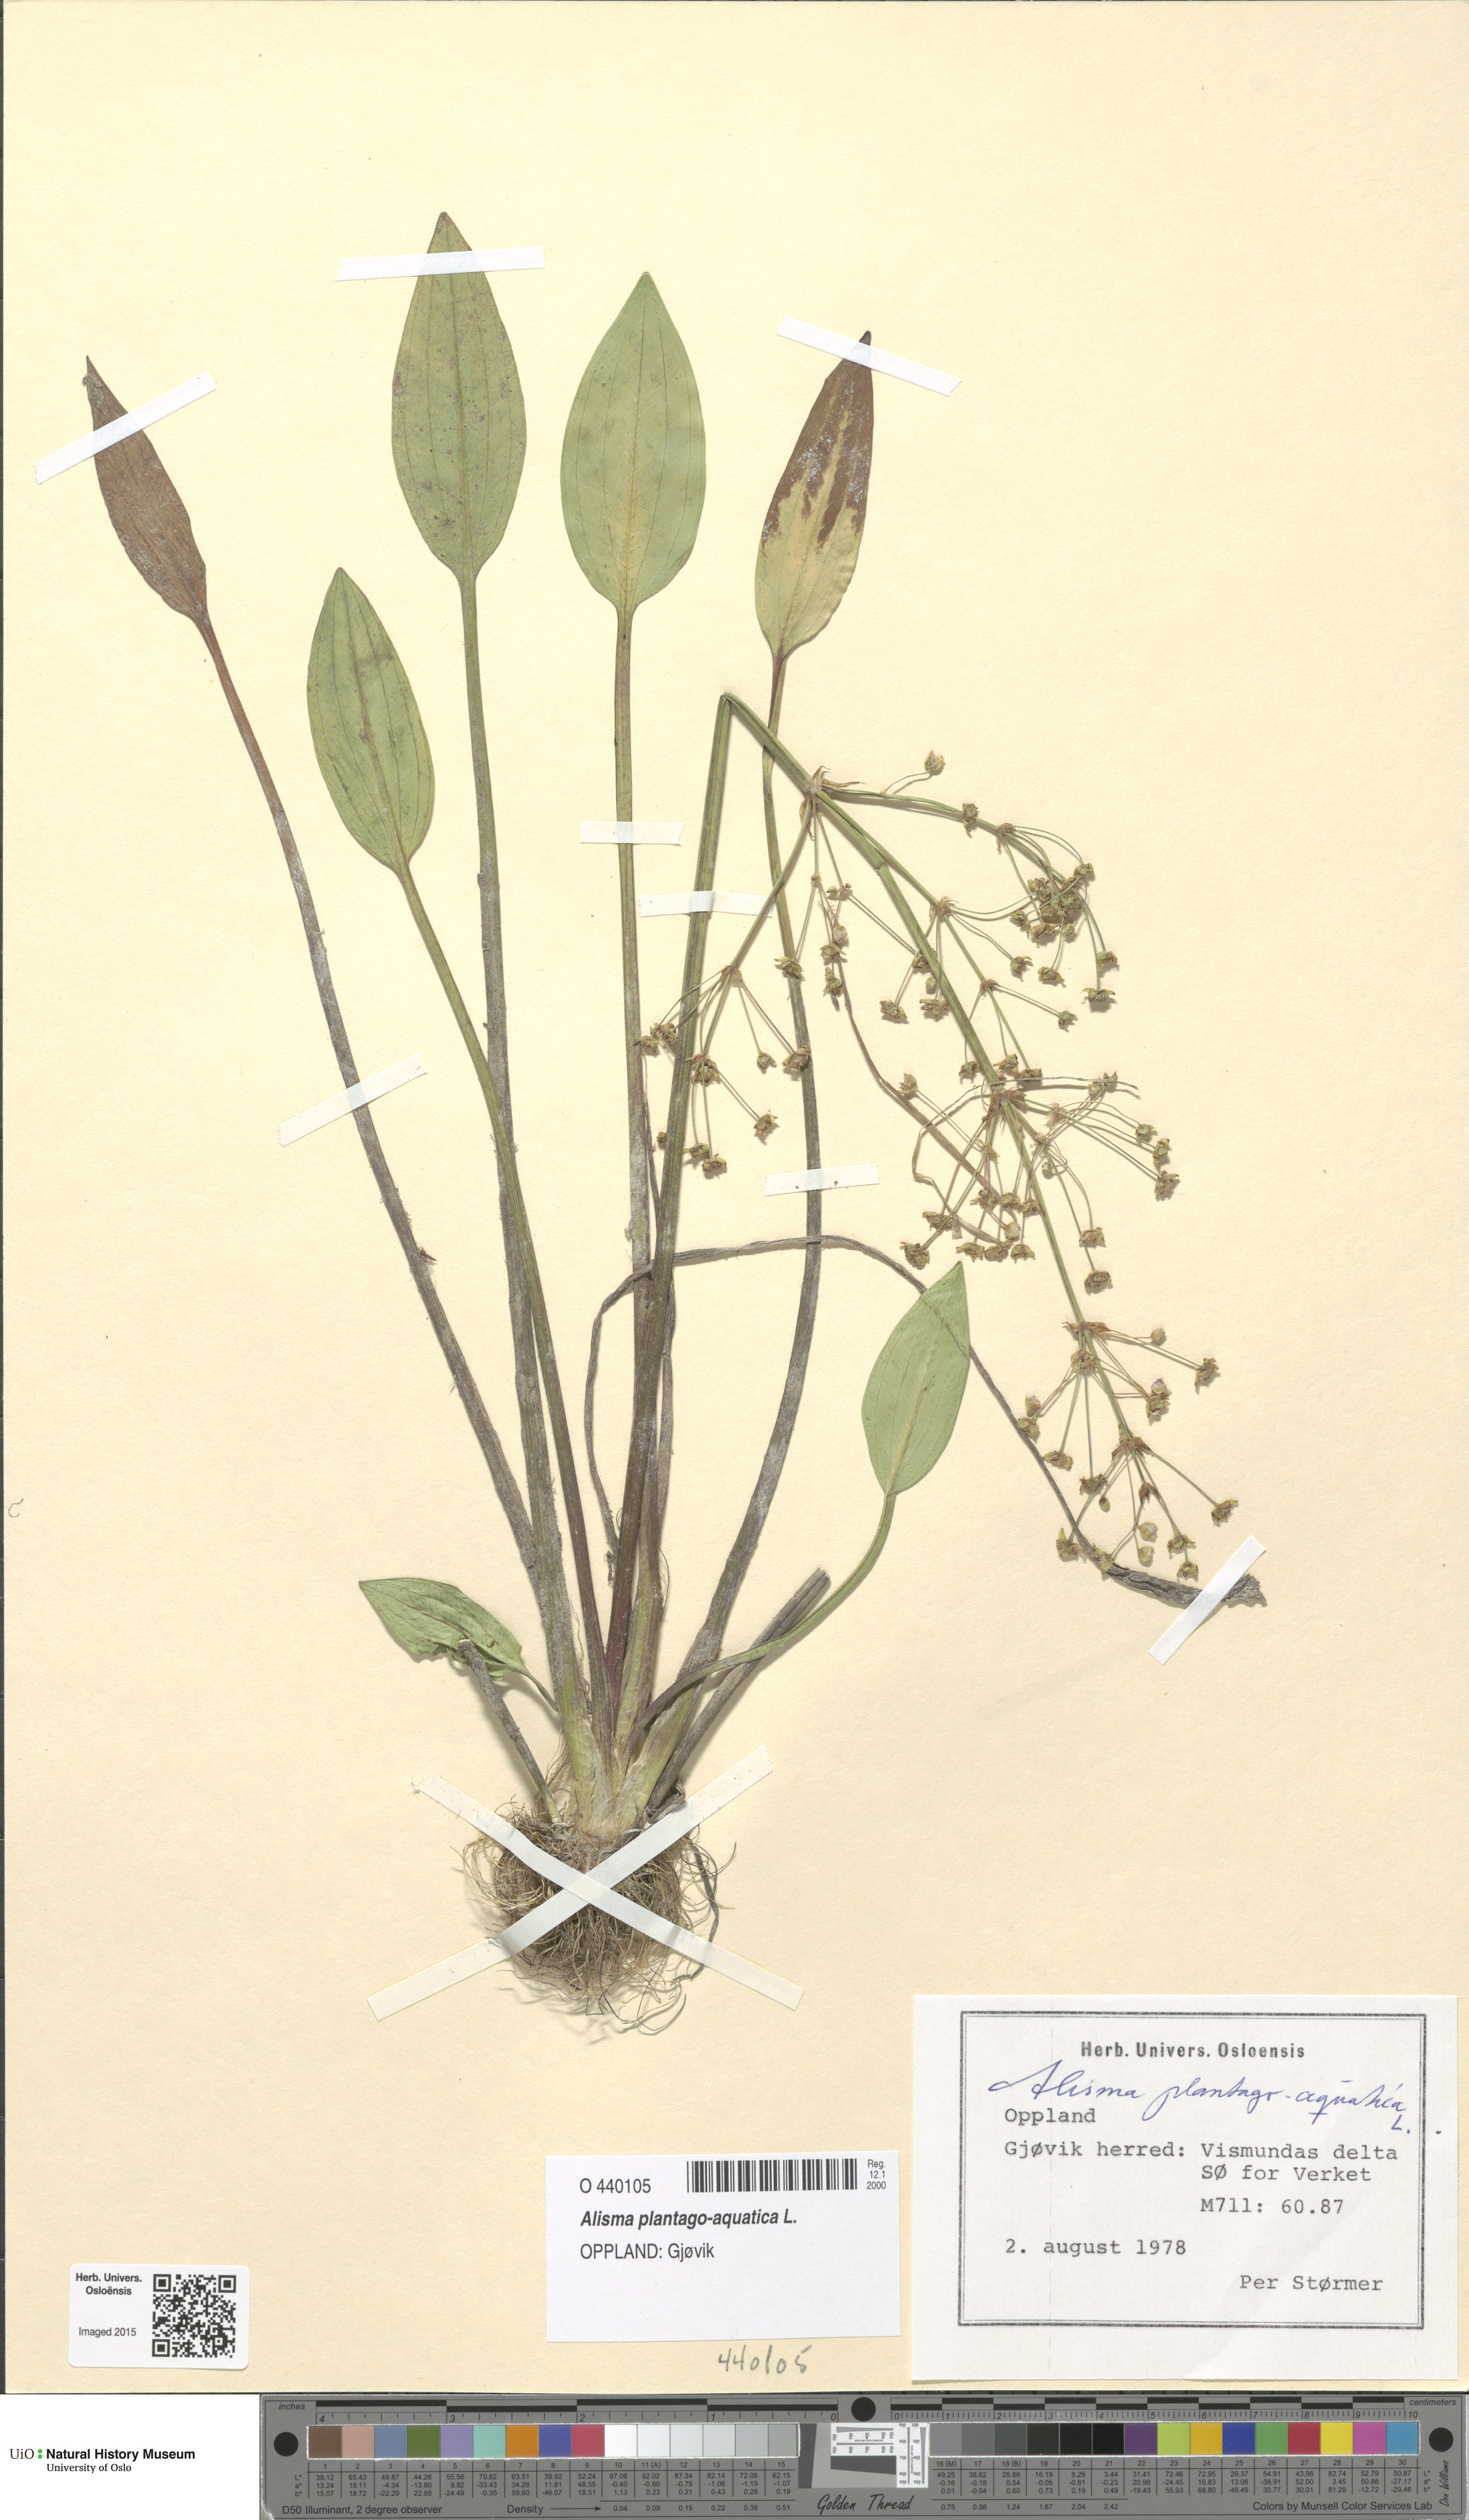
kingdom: Plantae
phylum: Tracheophyta
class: Liliopsida
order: Alismatales
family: Alismataceae
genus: Alisma
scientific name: Alisma plantago-aquatica
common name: Water-plantain
